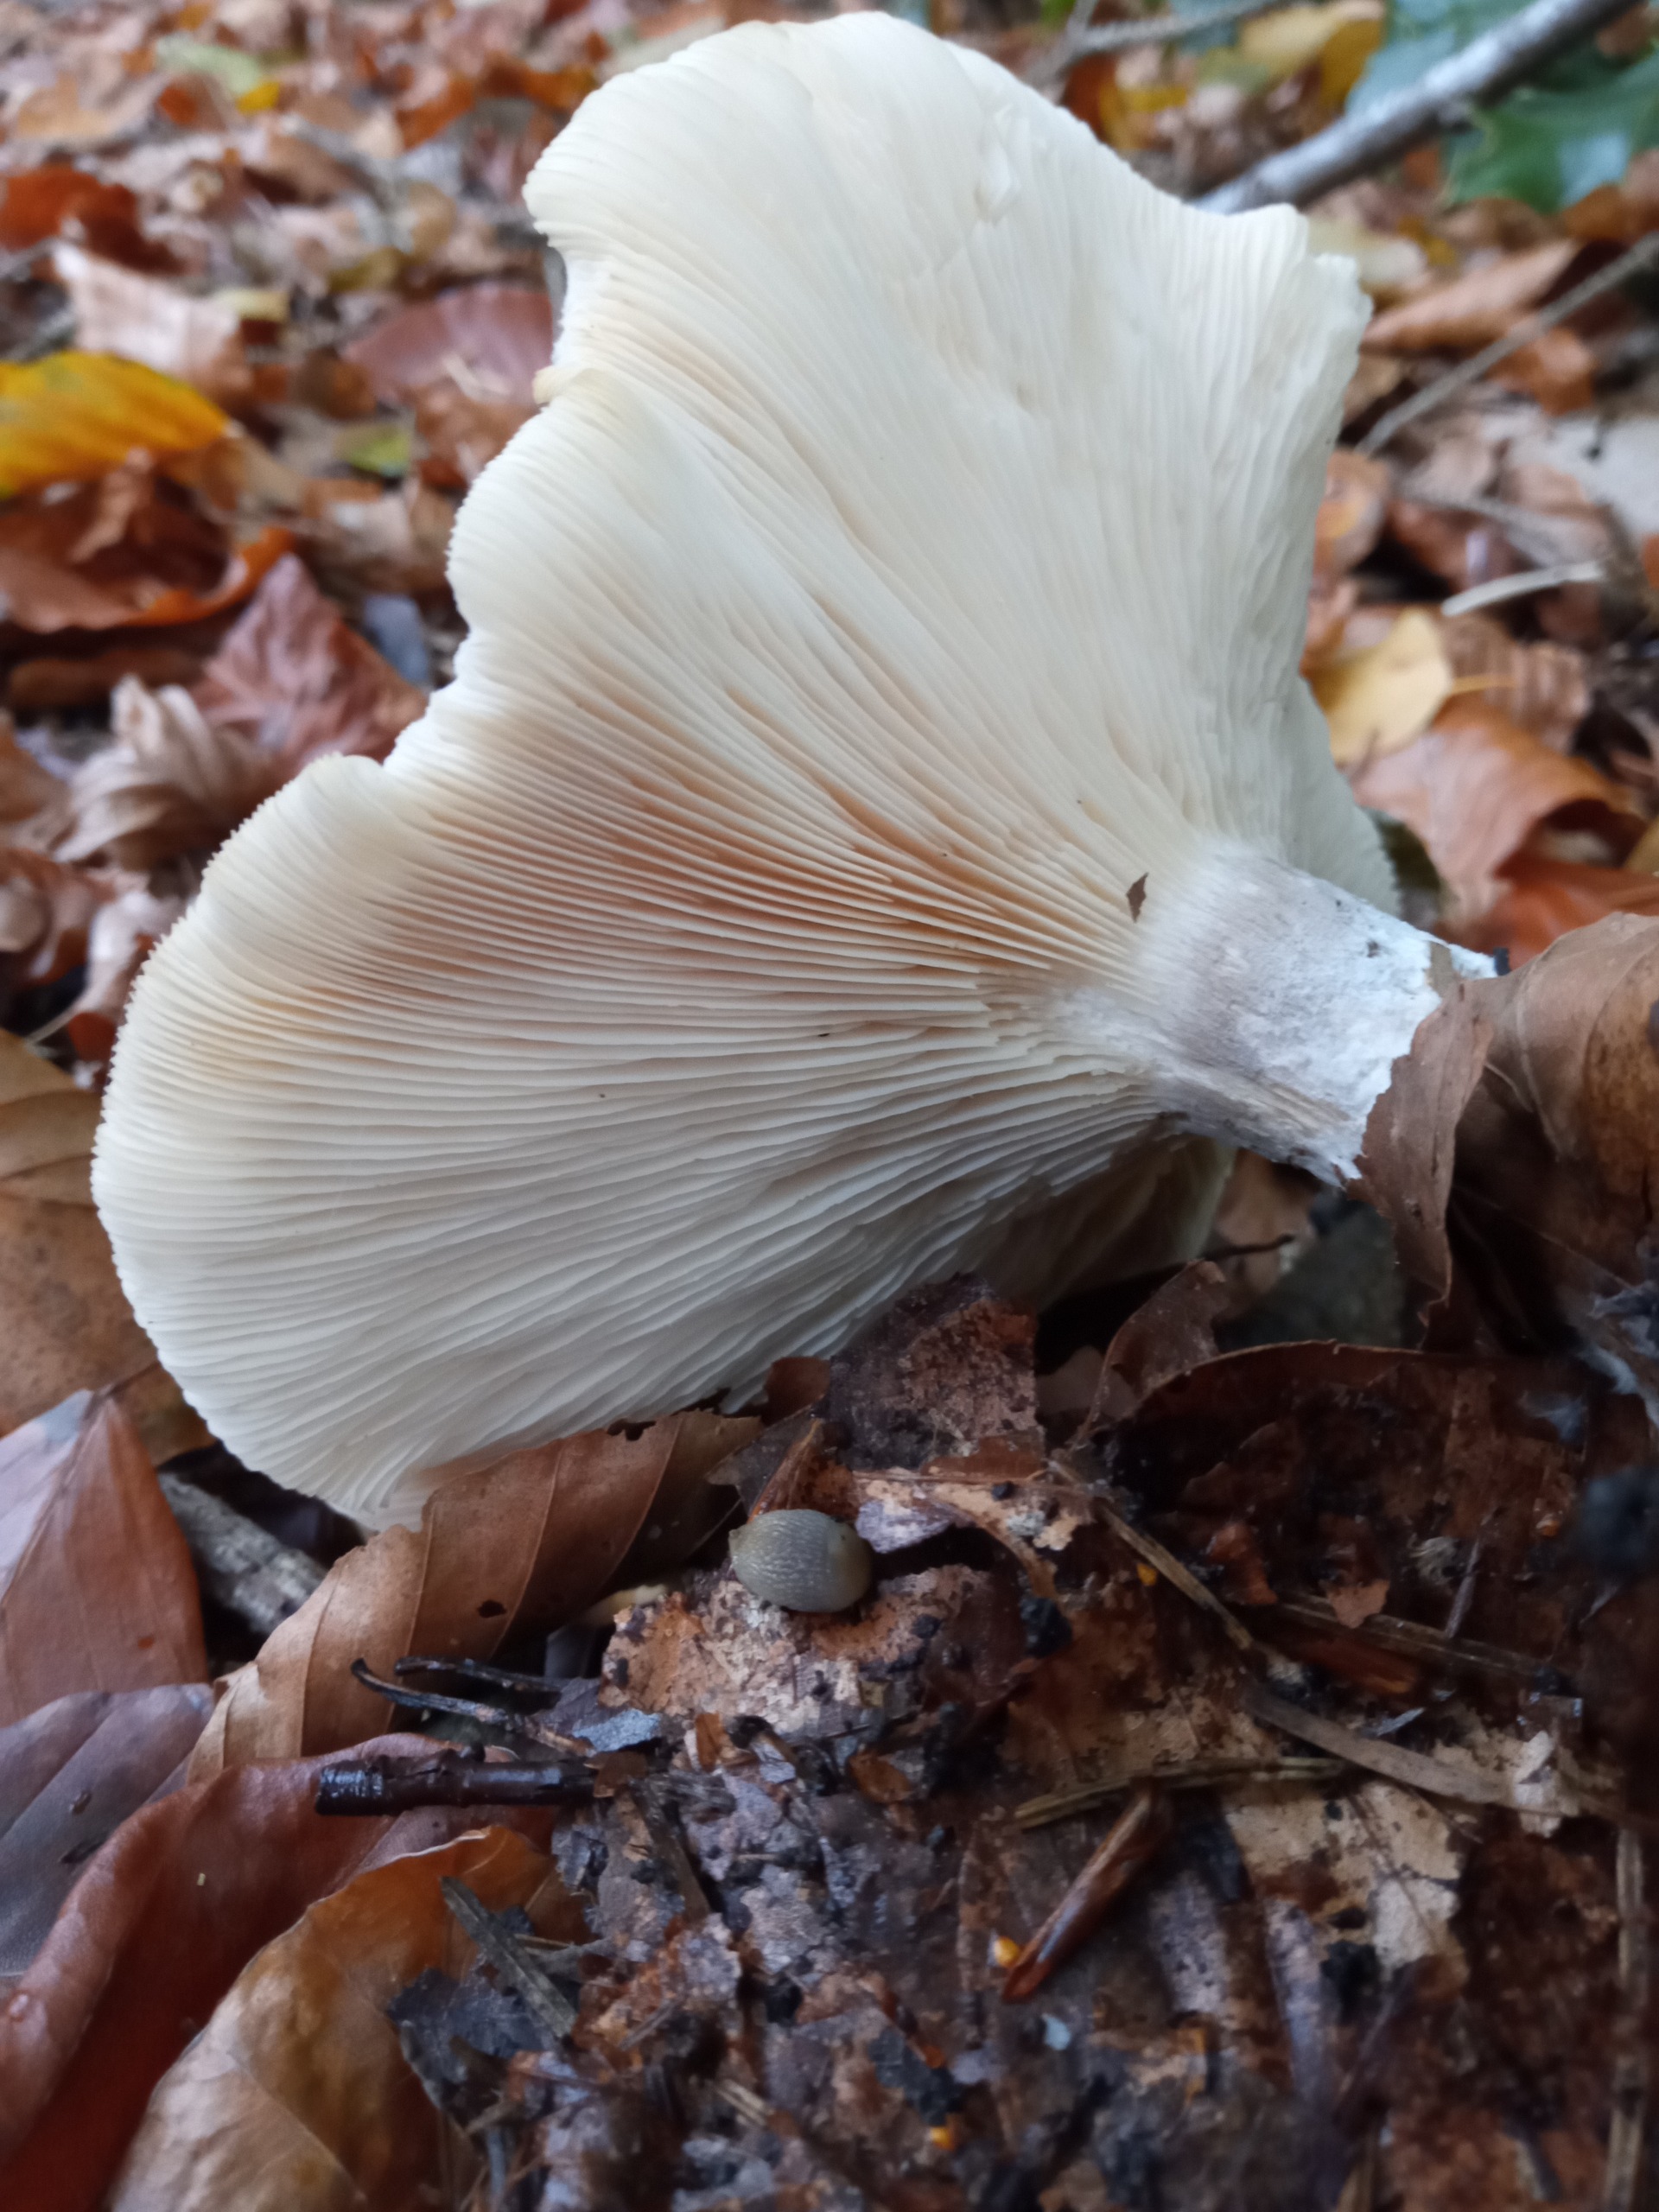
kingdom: Fungi
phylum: Basidiomycota
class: Agaricomycetes
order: Agaricales
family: Tricholomataceae
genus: Clitocybe
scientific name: Clitocybe nebularis
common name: Tåge-tragthat
